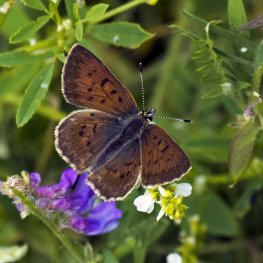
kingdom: Animalia
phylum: Arthropoda
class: Insecta
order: Lepidoptera
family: Lycaenidae
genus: Epidemia
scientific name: Epidemia dorcas
